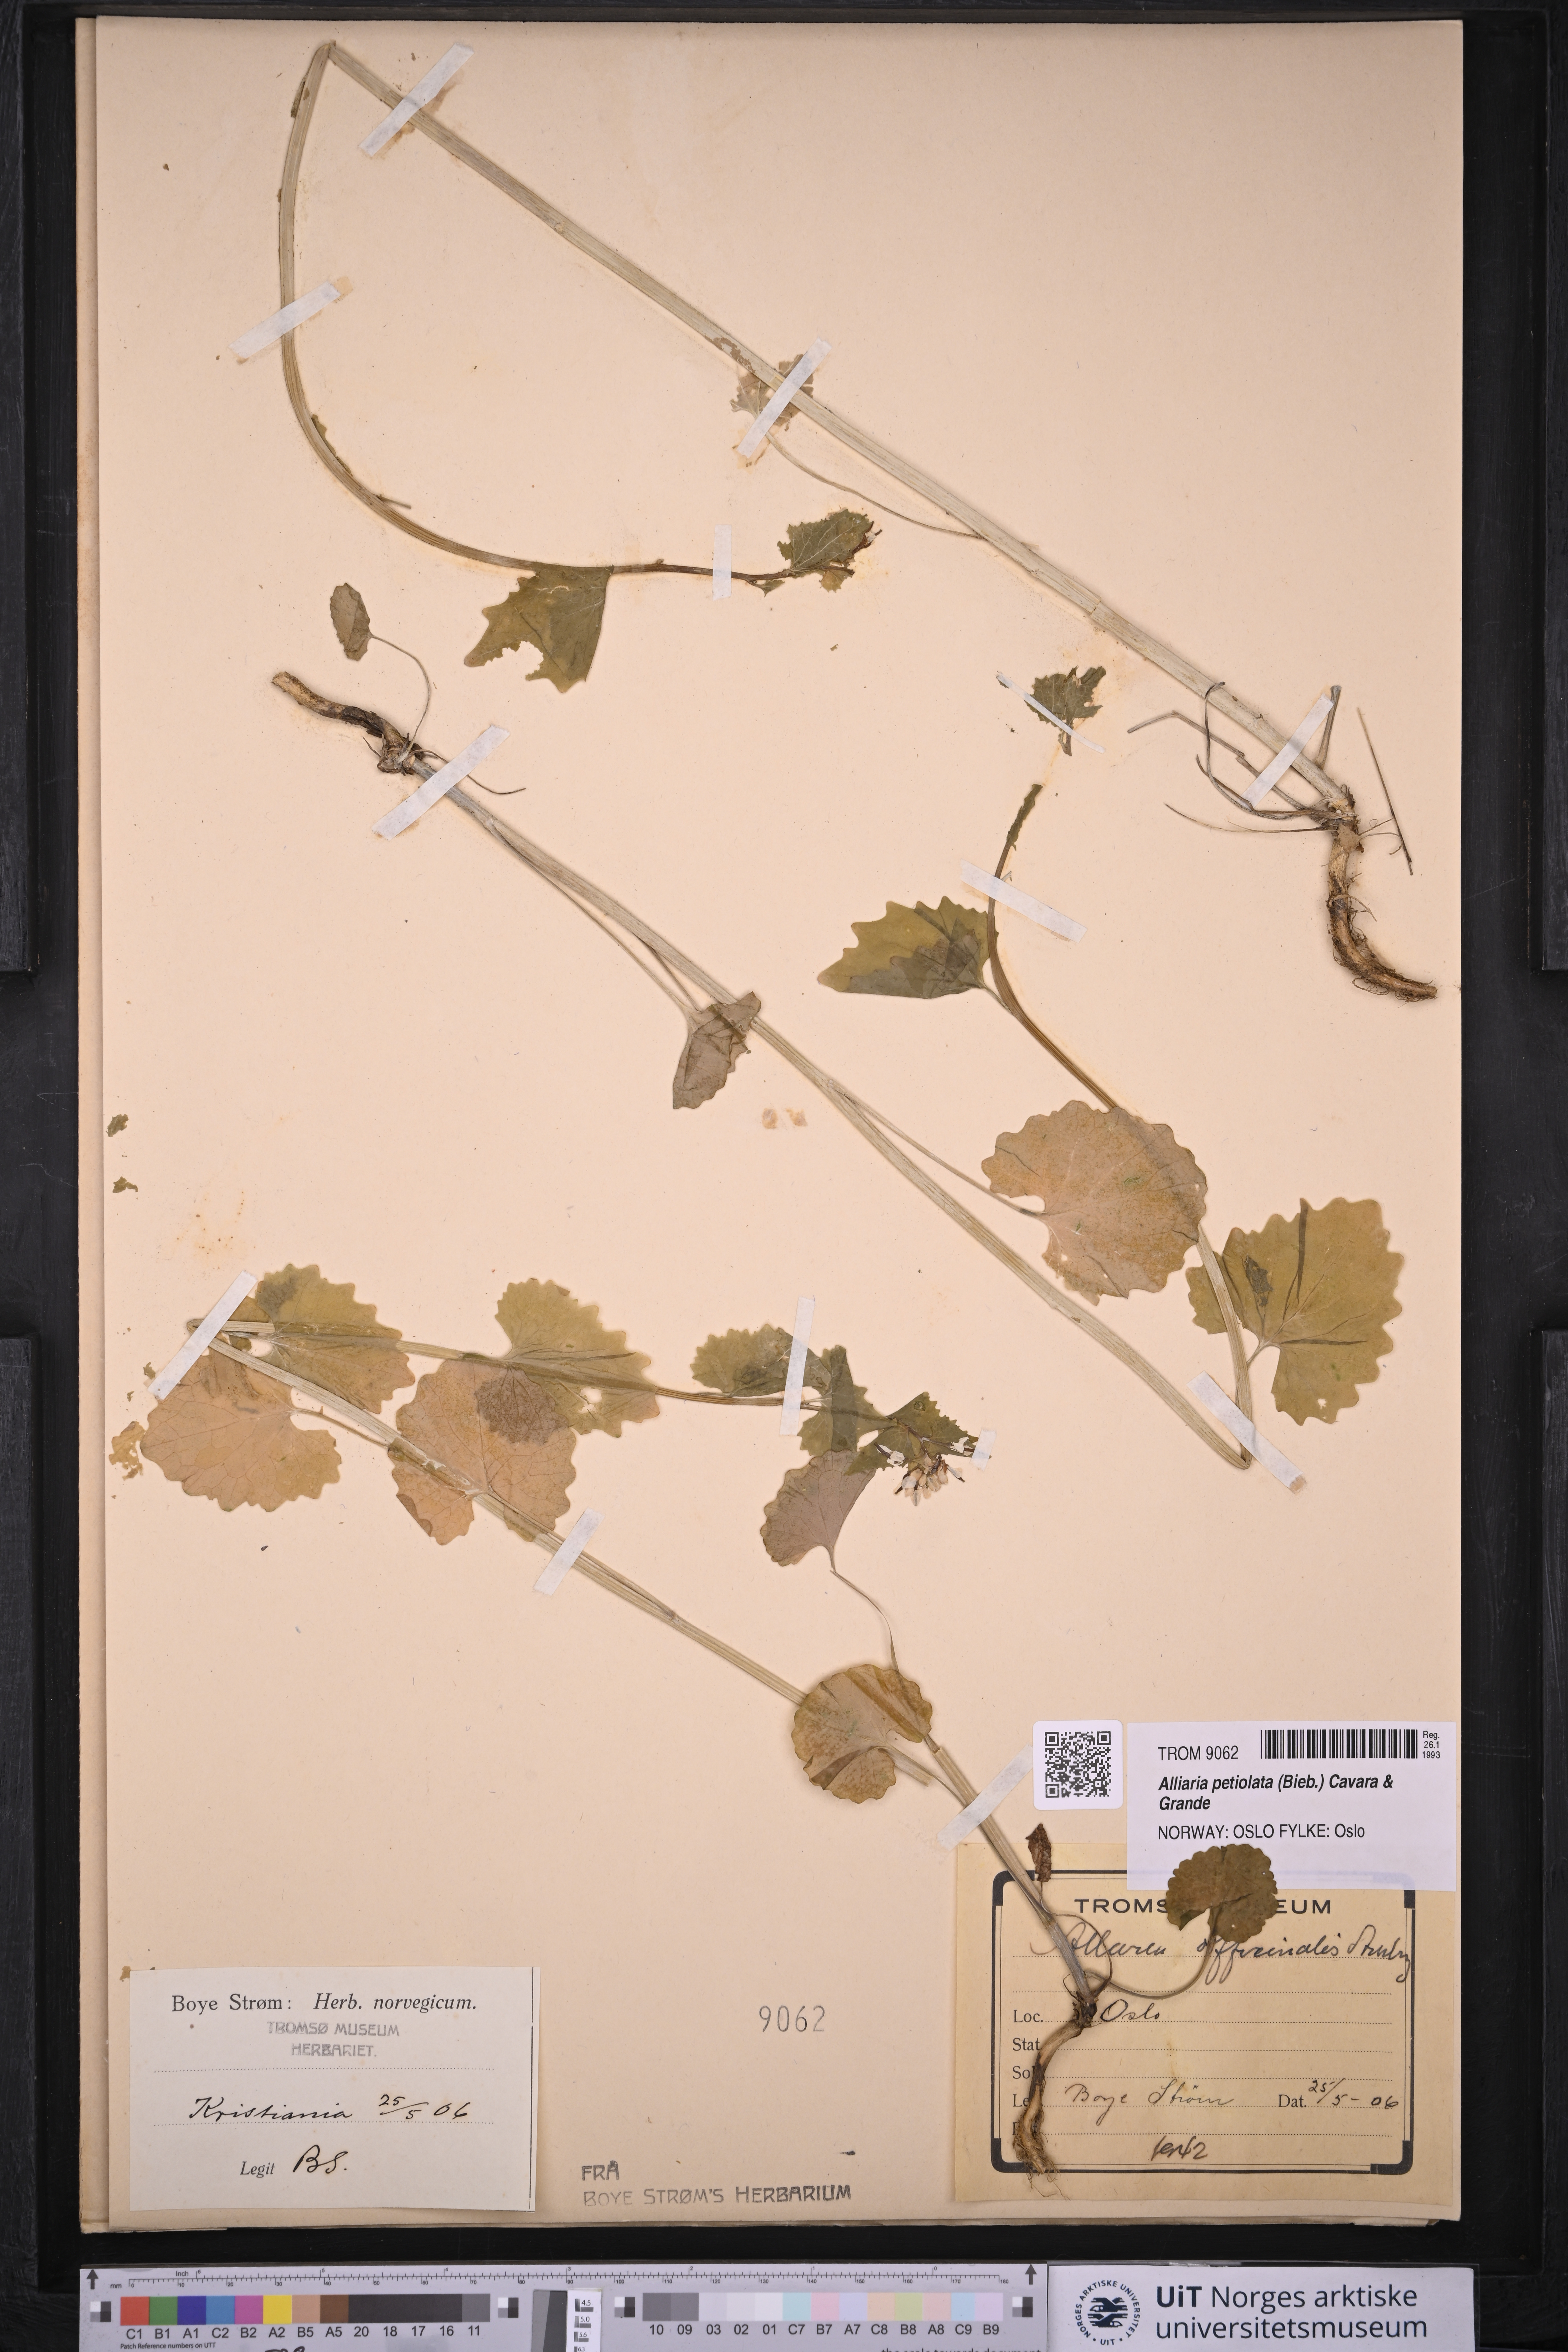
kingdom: Plantae
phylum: Tracheophyta
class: Magnoliopsida
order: Brassicales
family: Brassicaceae
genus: Alliaria
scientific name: Alliaria petiolata
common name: Garlic mustard
